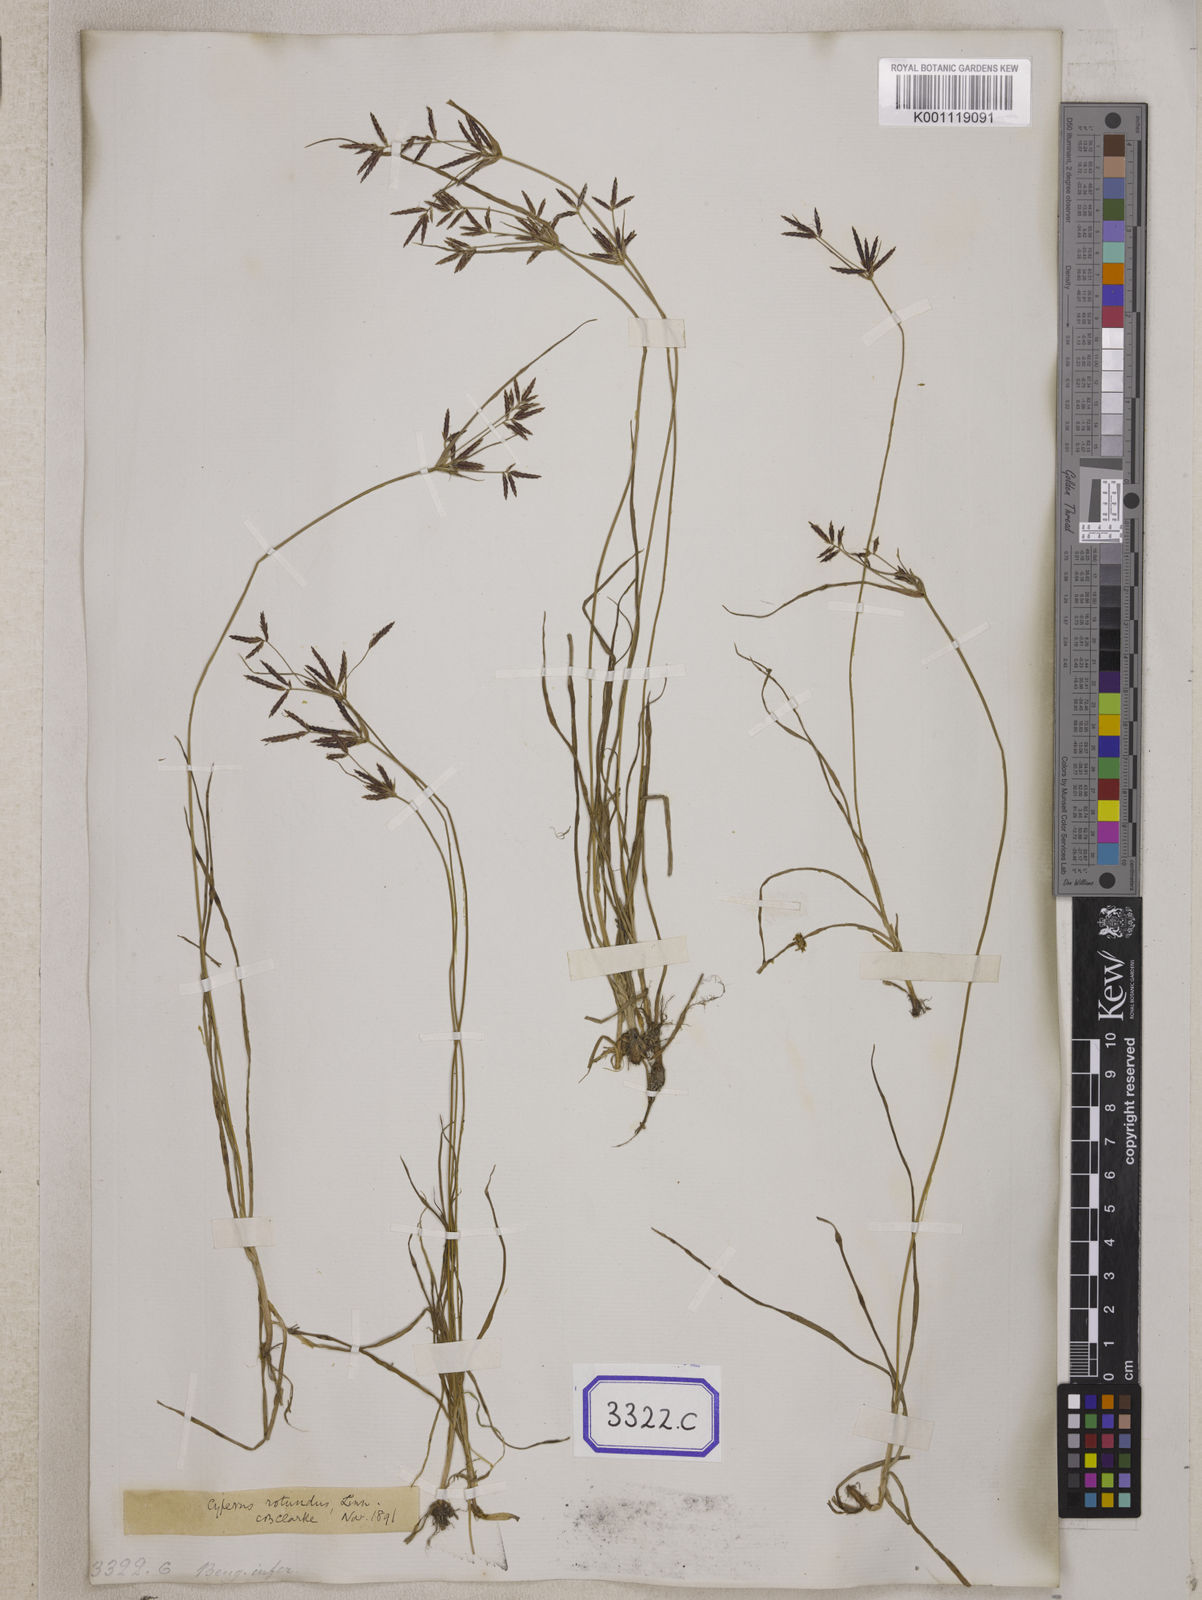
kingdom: Plantae
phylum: Tracheophyta
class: Liliopsida
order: Poales
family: Cyperaceae
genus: Cyperus
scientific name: Cyperus
